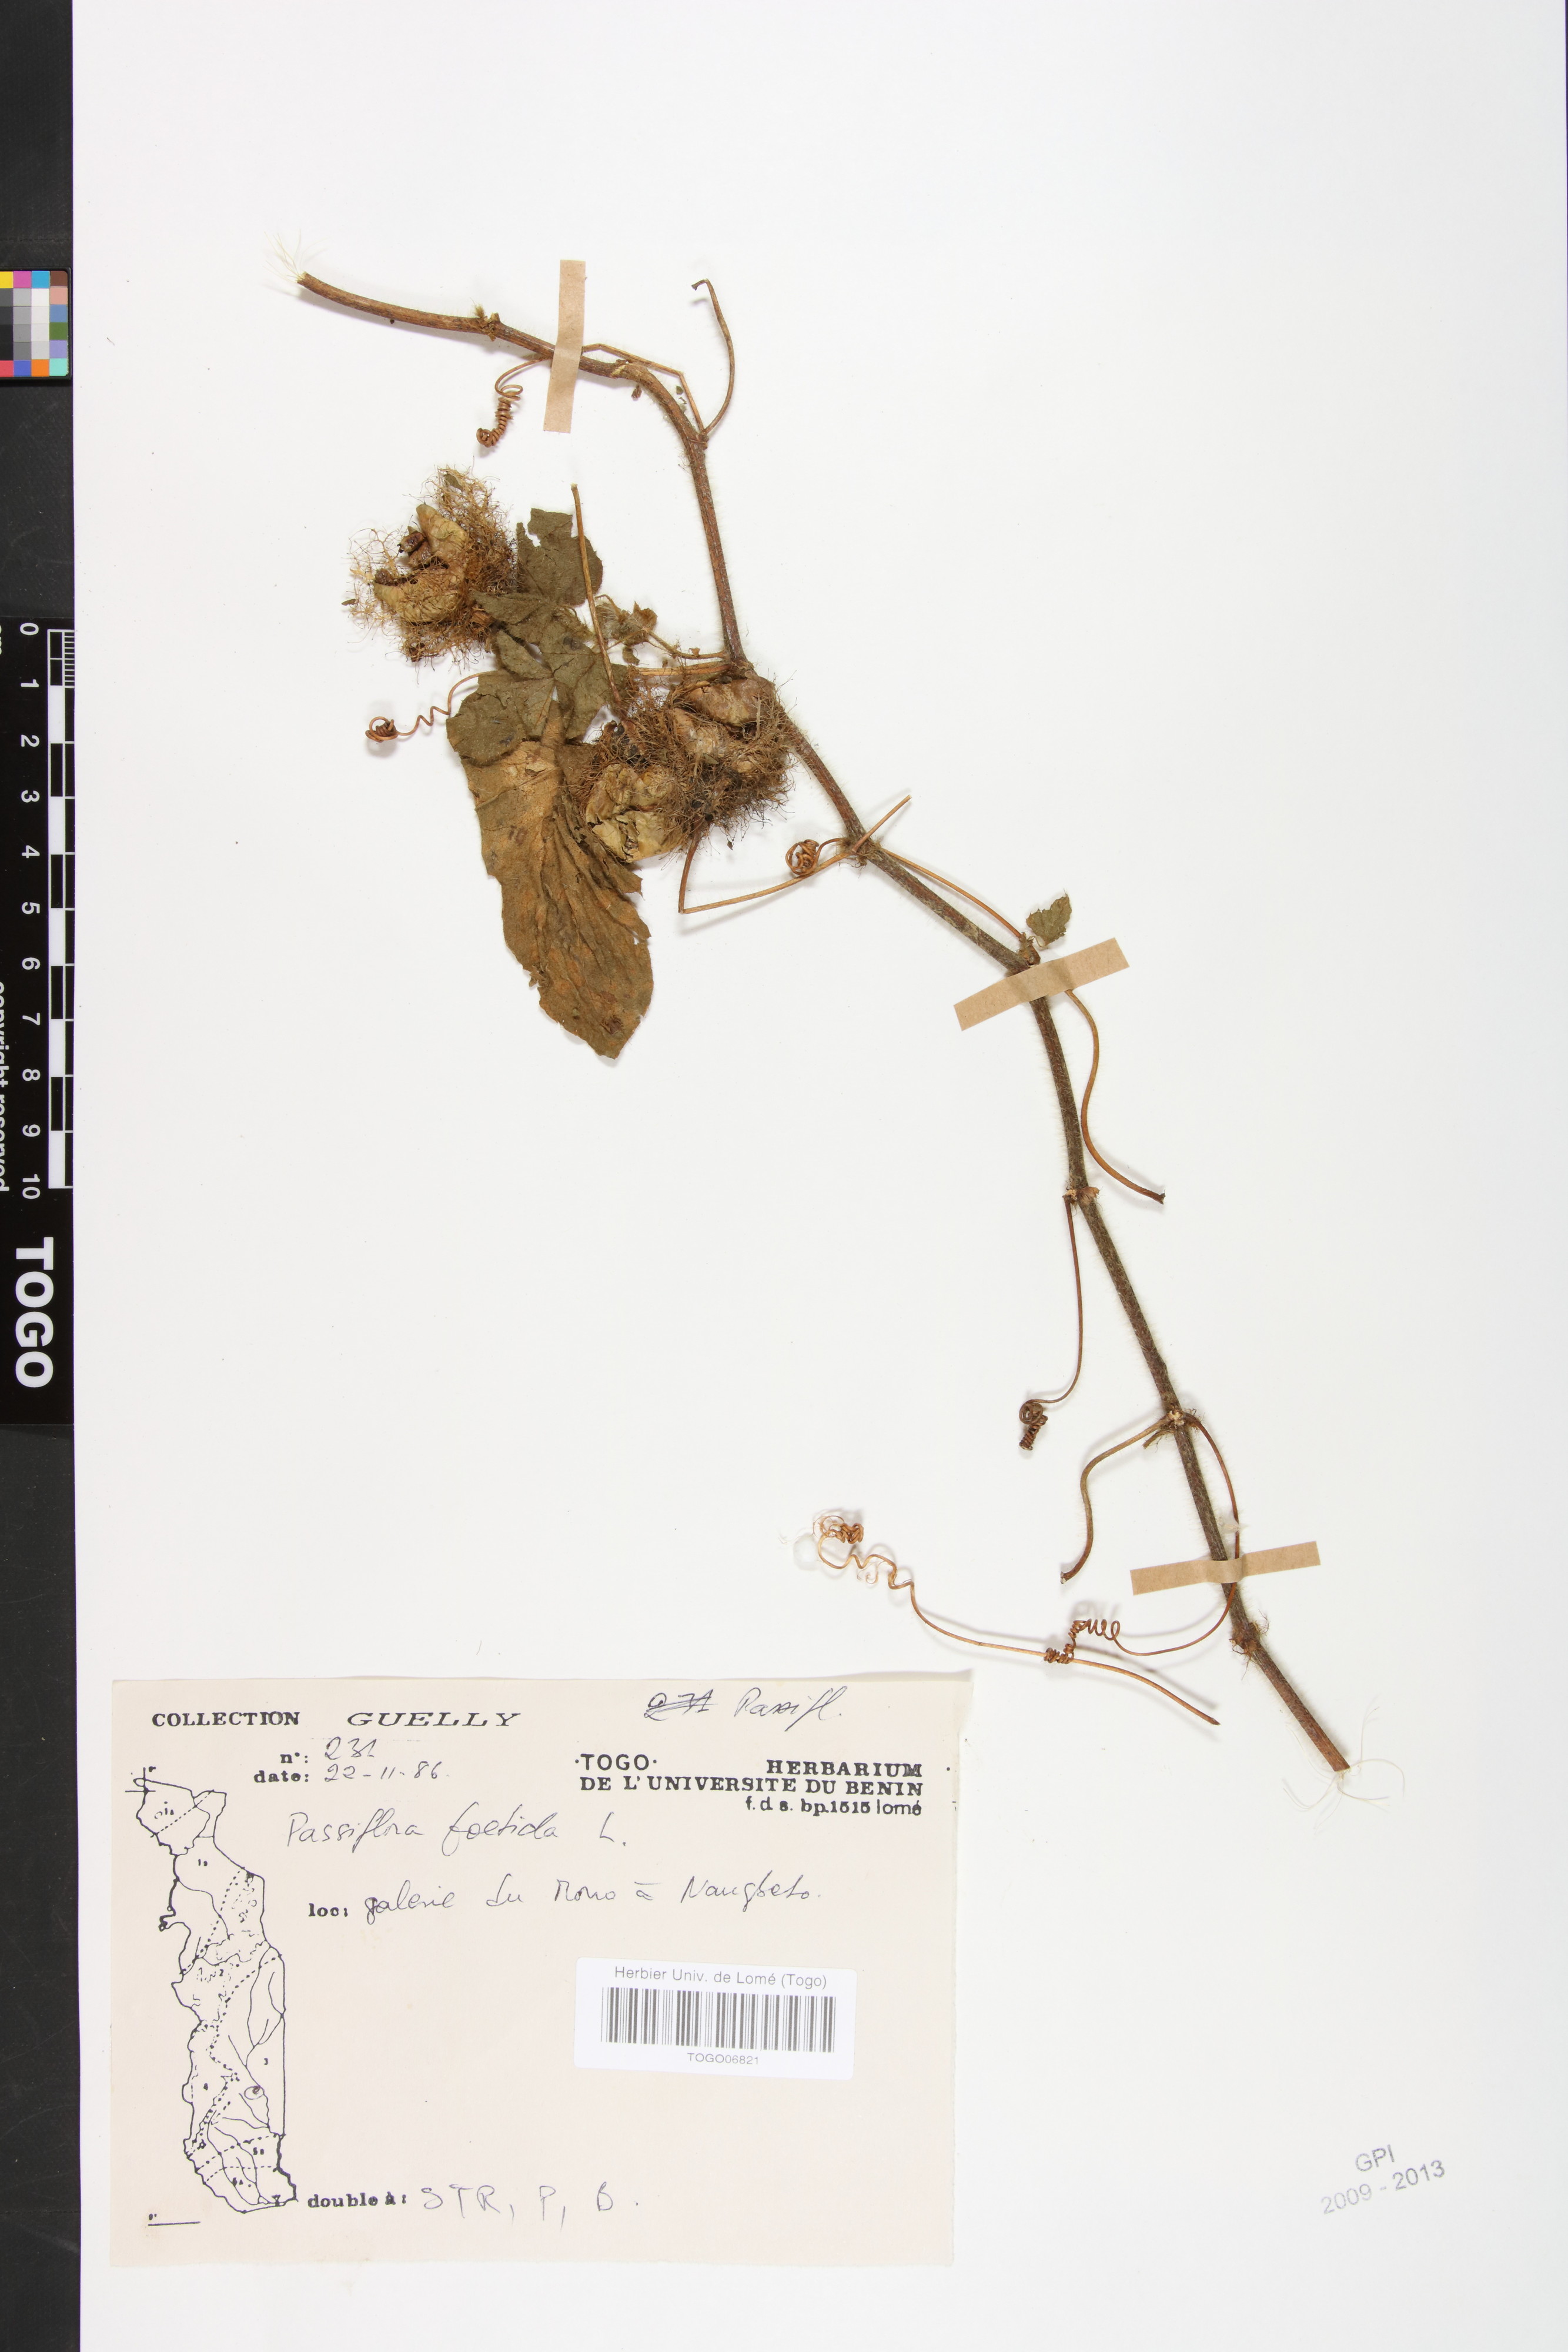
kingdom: Plantae
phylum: Tracheophyta
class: Magnoliopsida
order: Malpighiales
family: Passifloraceae
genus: Passiflora
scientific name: Passiflora foetida
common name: Fetid passionflower
